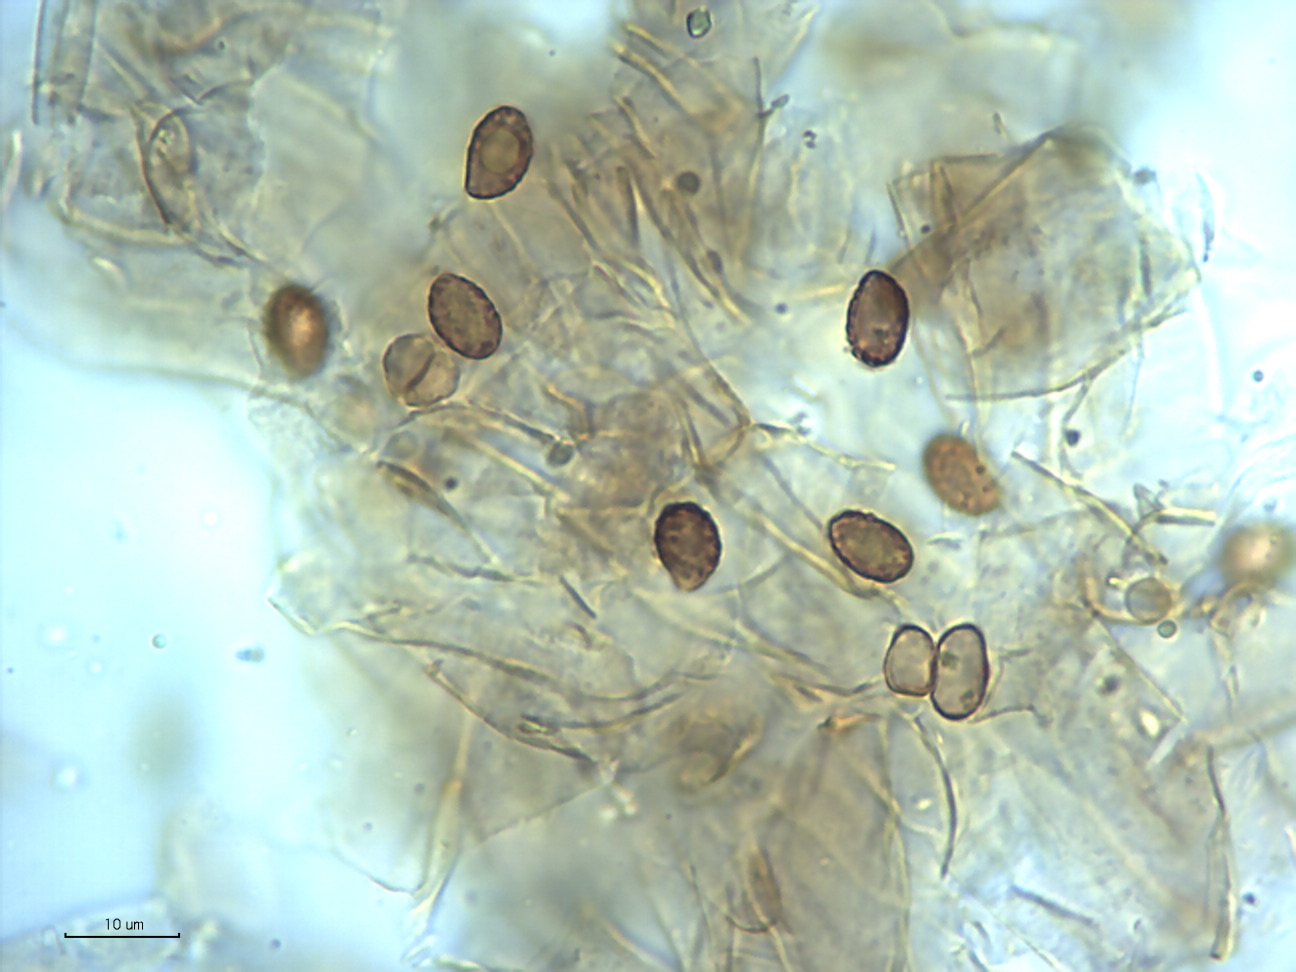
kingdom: Fungi
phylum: Basidiomycota
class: Agaricomycetes
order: Agaricales
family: Cortinariaceae
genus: Cortinarius
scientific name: Cortinarius milvinicolor
